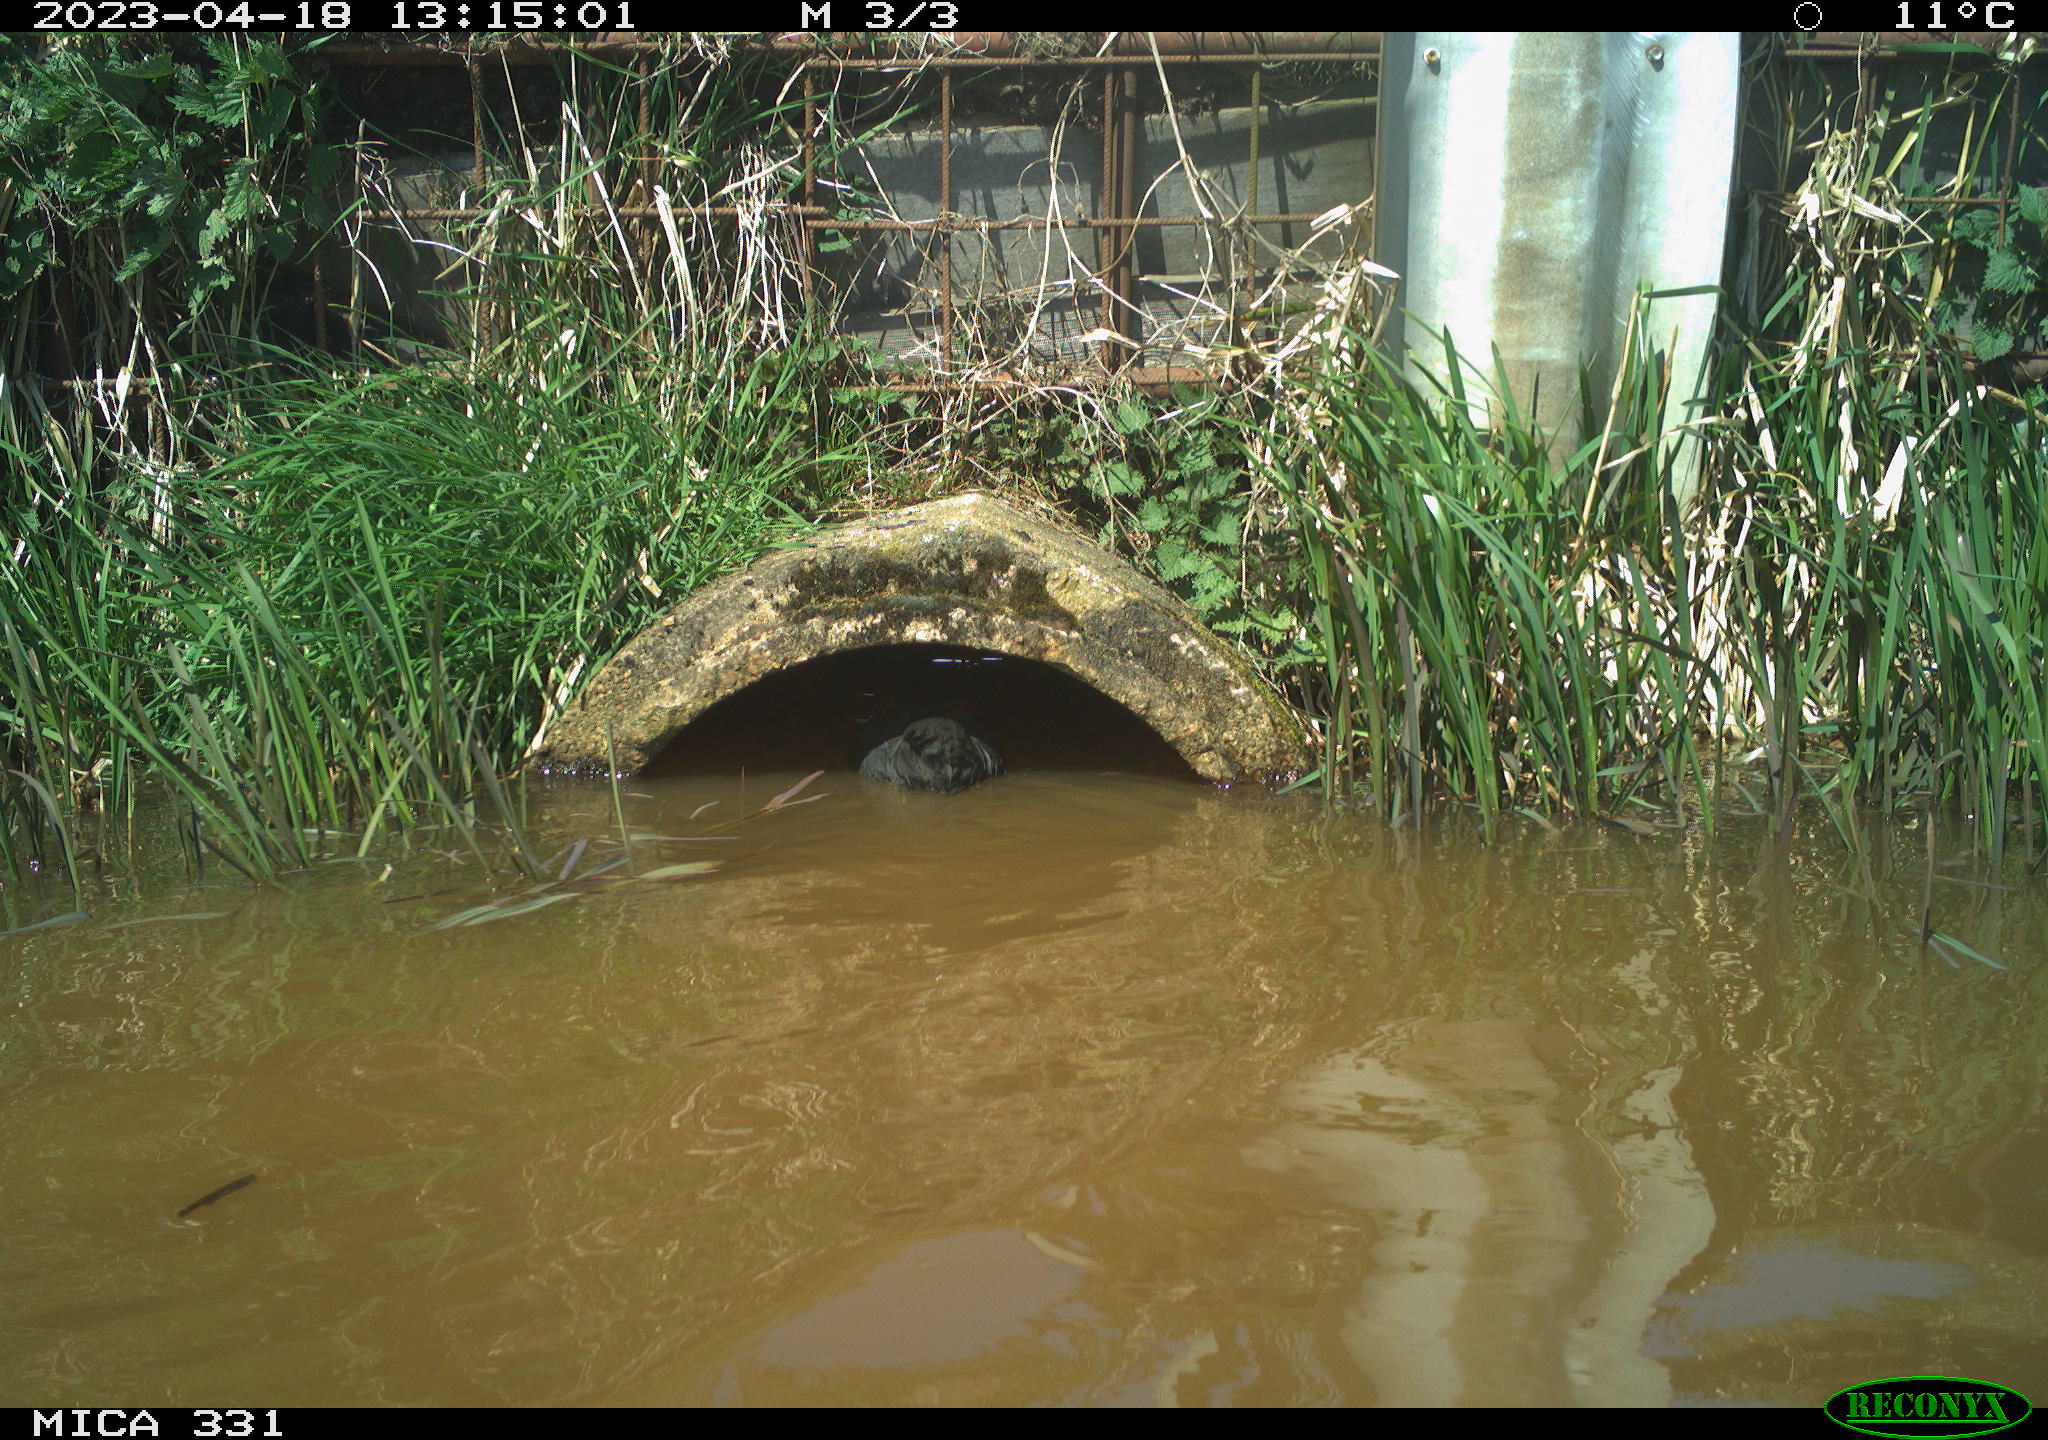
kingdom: Animalia
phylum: Chordata
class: Aves
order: Gruiformes
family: Rallidae
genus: Fulica
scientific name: Fulica atra
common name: Eurasian coot
